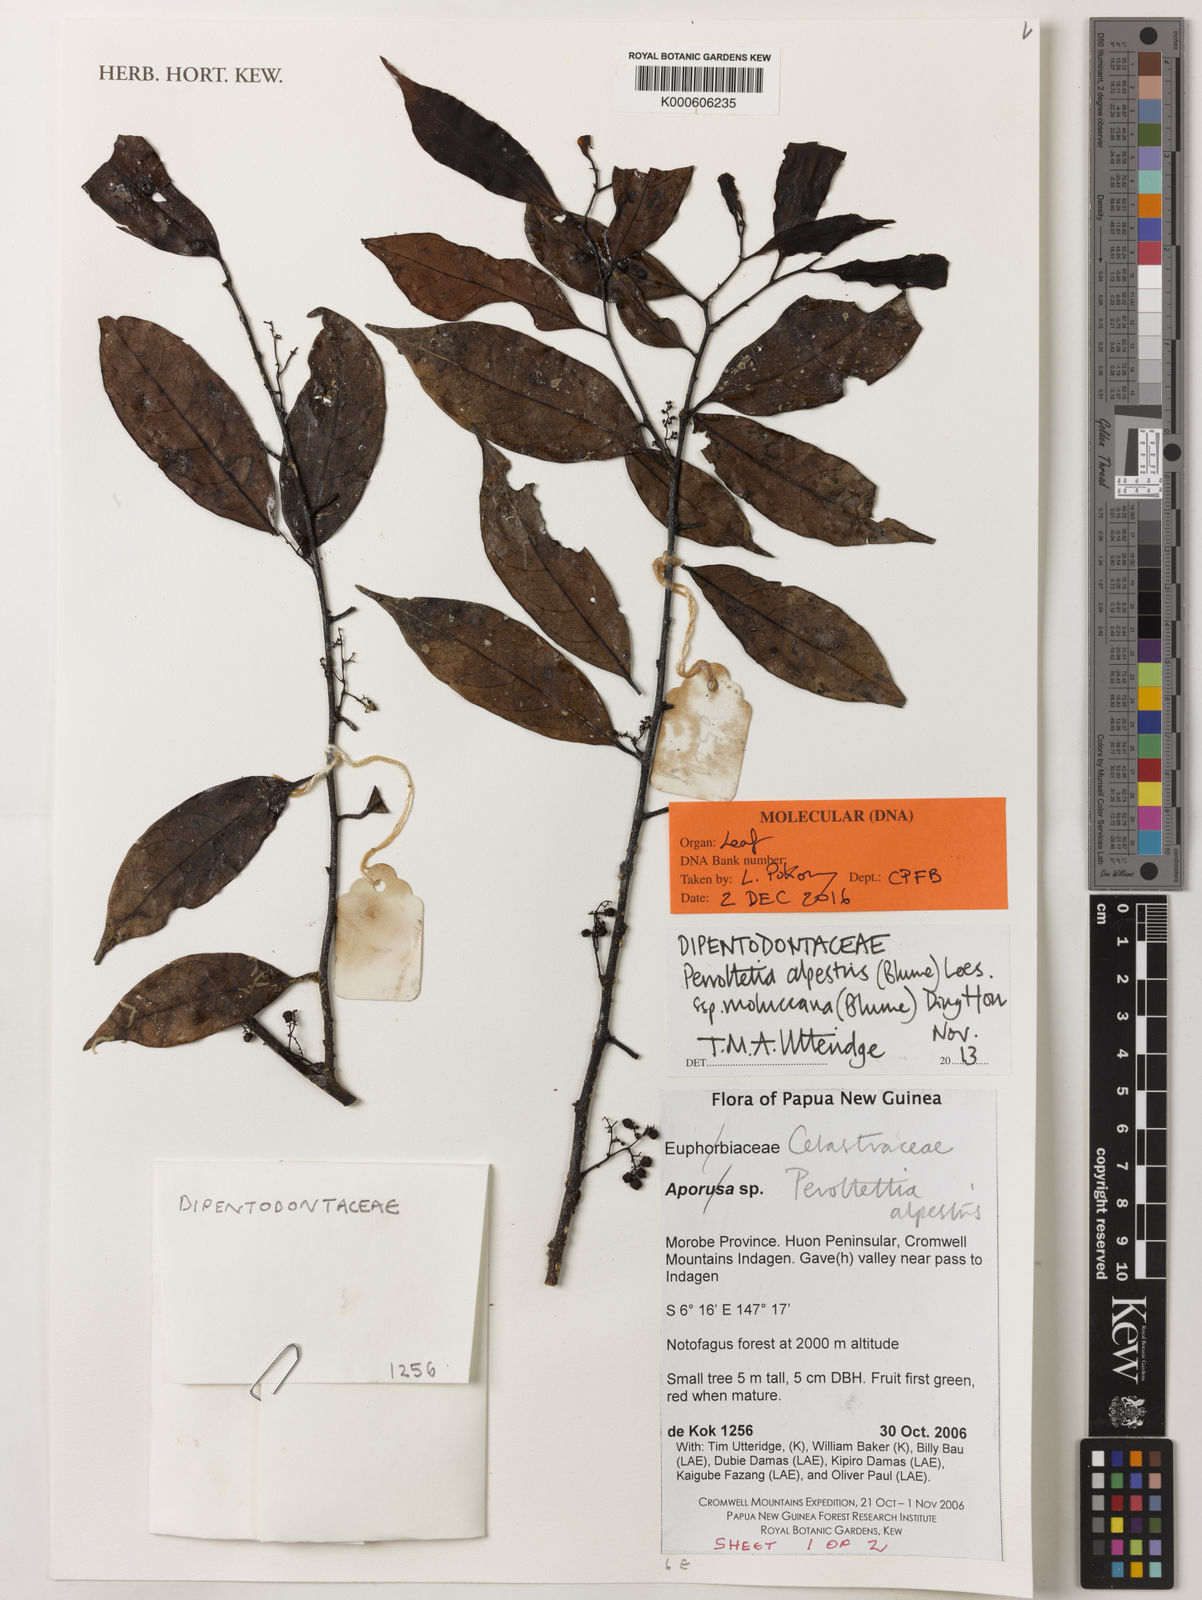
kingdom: Plantae
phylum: Tracheophyta
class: Magnoliopsida
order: Huerteales
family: Dipentodontaceae
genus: Perrottetia
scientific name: Perrottetia alpestris
